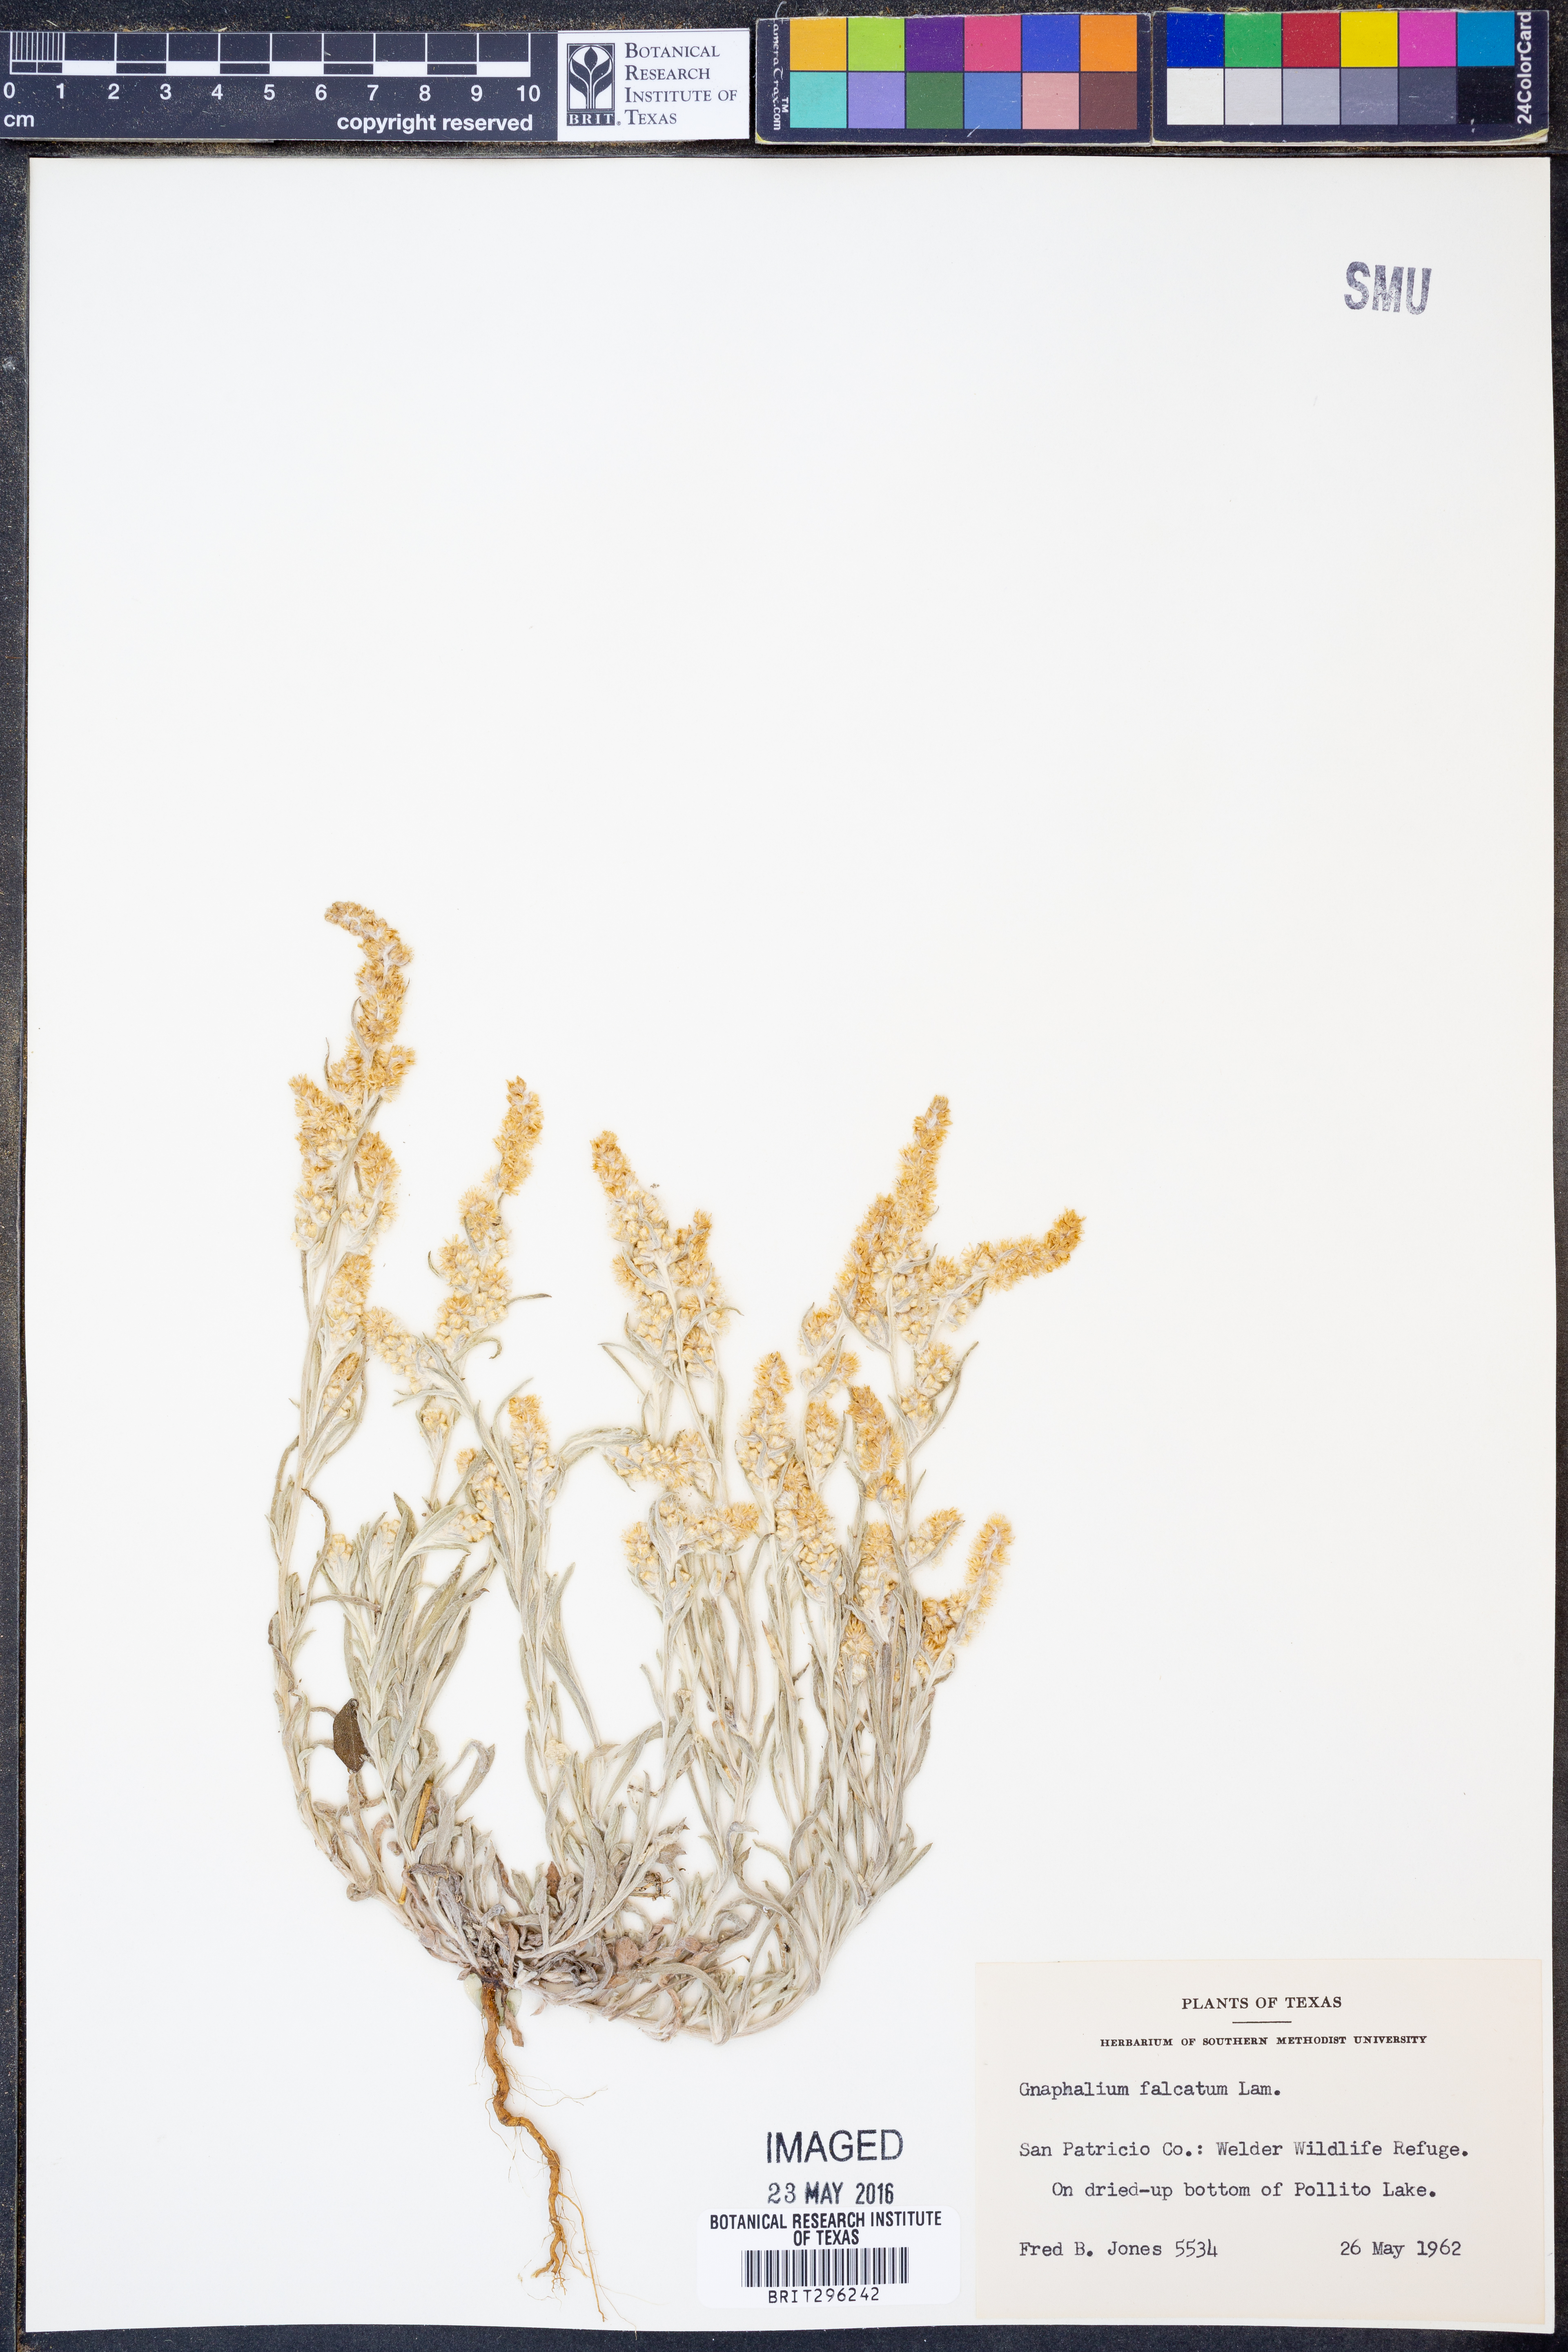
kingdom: Plantae
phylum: Tracheophyta
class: Magnoliopsida
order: Asterales
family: Asteraceae
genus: Gamochaeta
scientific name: Gamochaeta falcata
